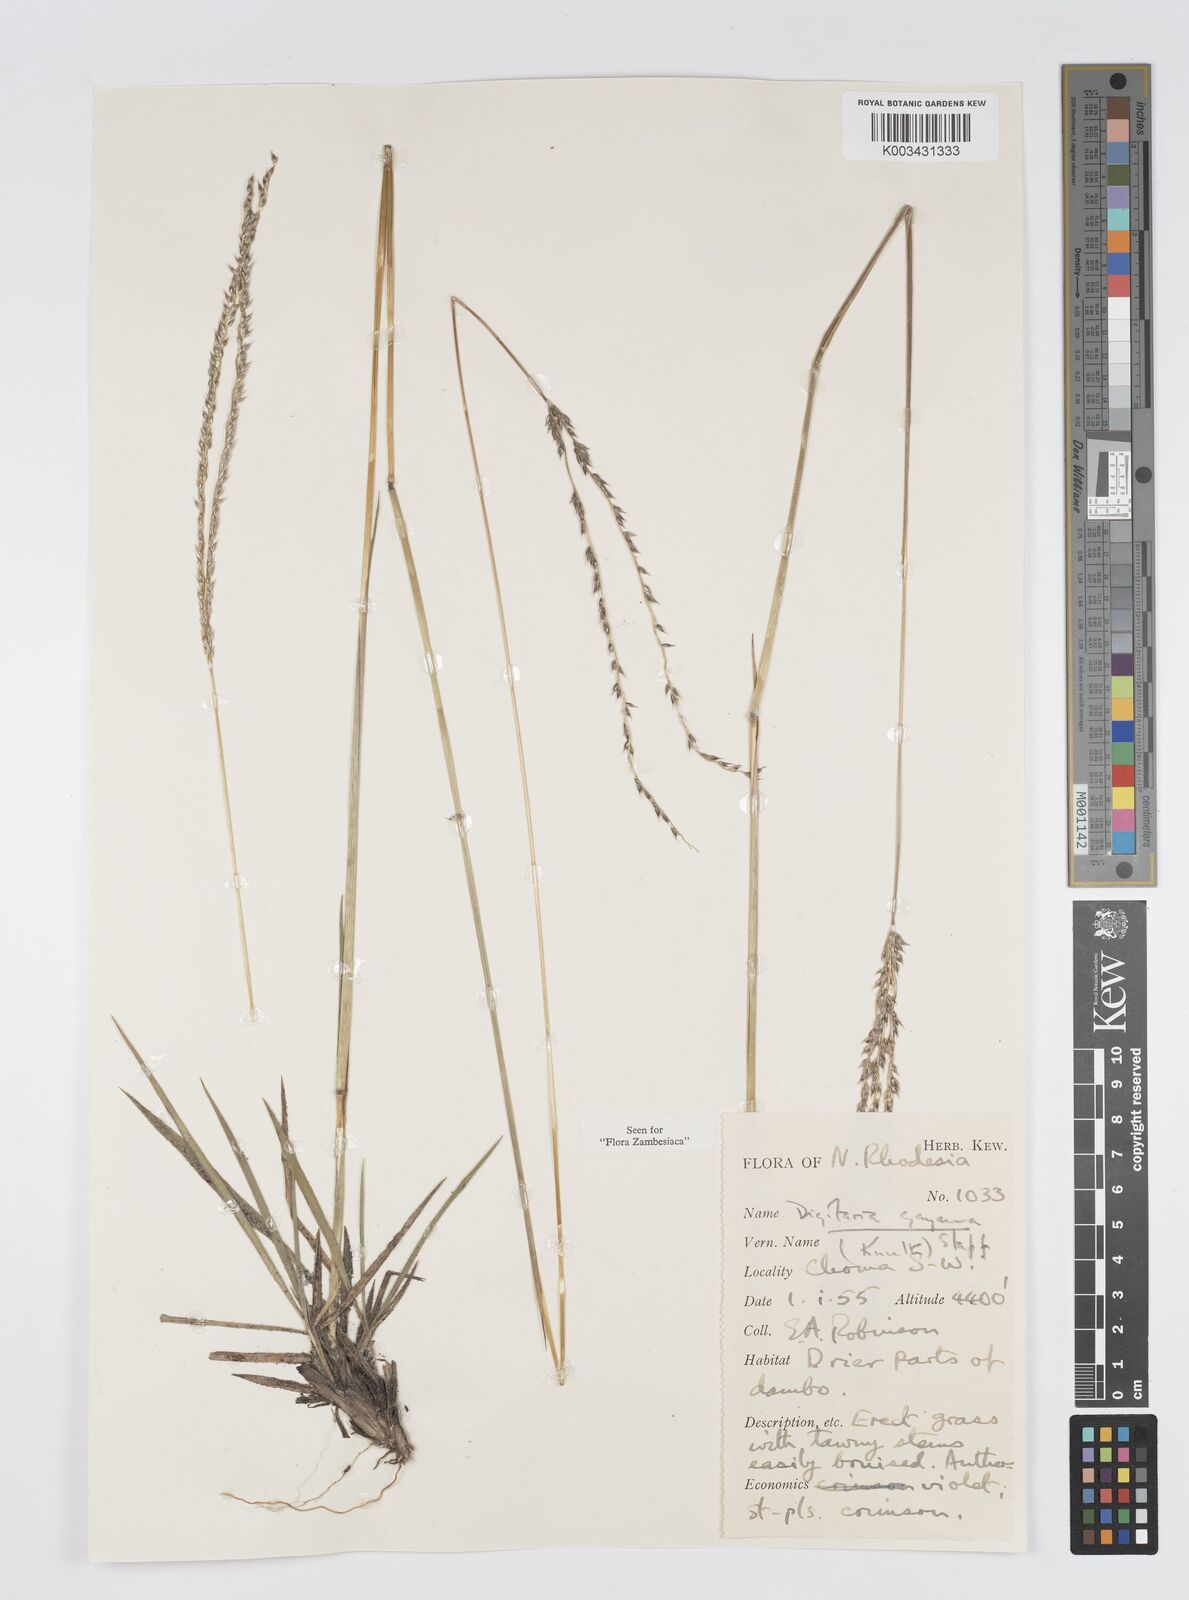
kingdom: Plantae
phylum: Tracheophyta
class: Liliopsida
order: Poales
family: Poaceae
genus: Digitaria
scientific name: Digitaria brazzae
